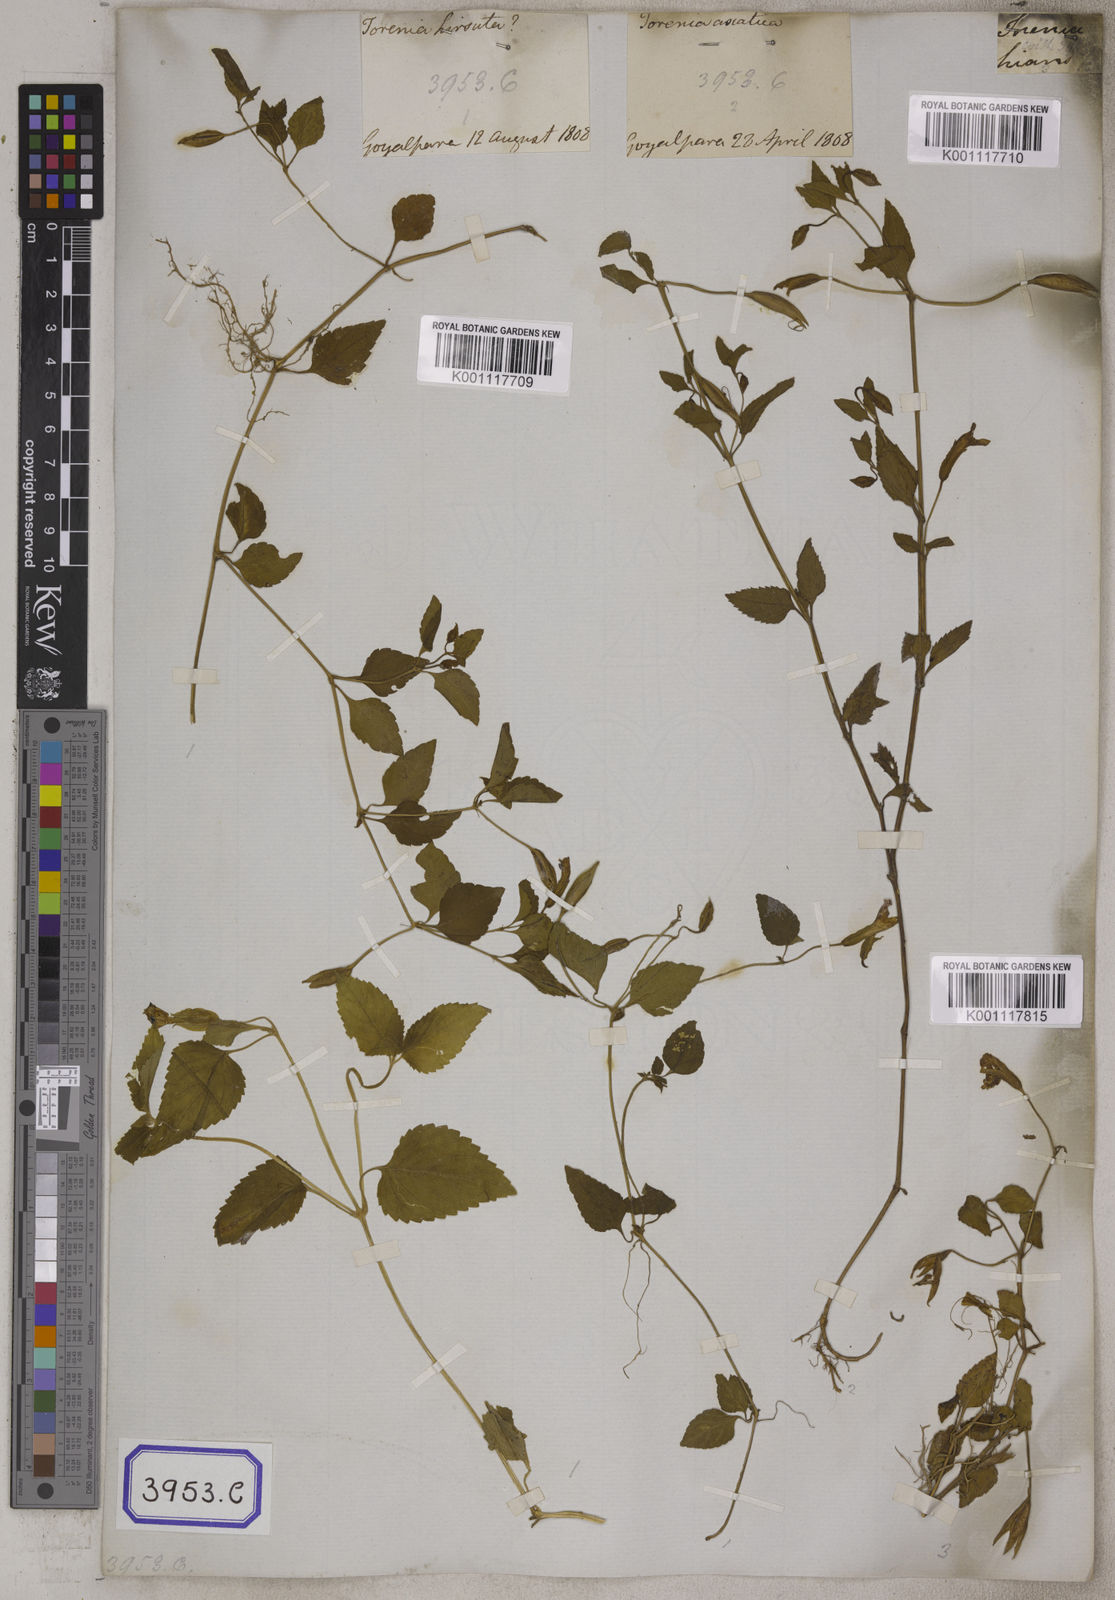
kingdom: Plantae
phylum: Tracheophyta
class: Magnoliopsida
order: Lamiales
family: Linderniaceae
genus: Torenia
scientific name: Torenia asiatica
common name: Wishbone flower
